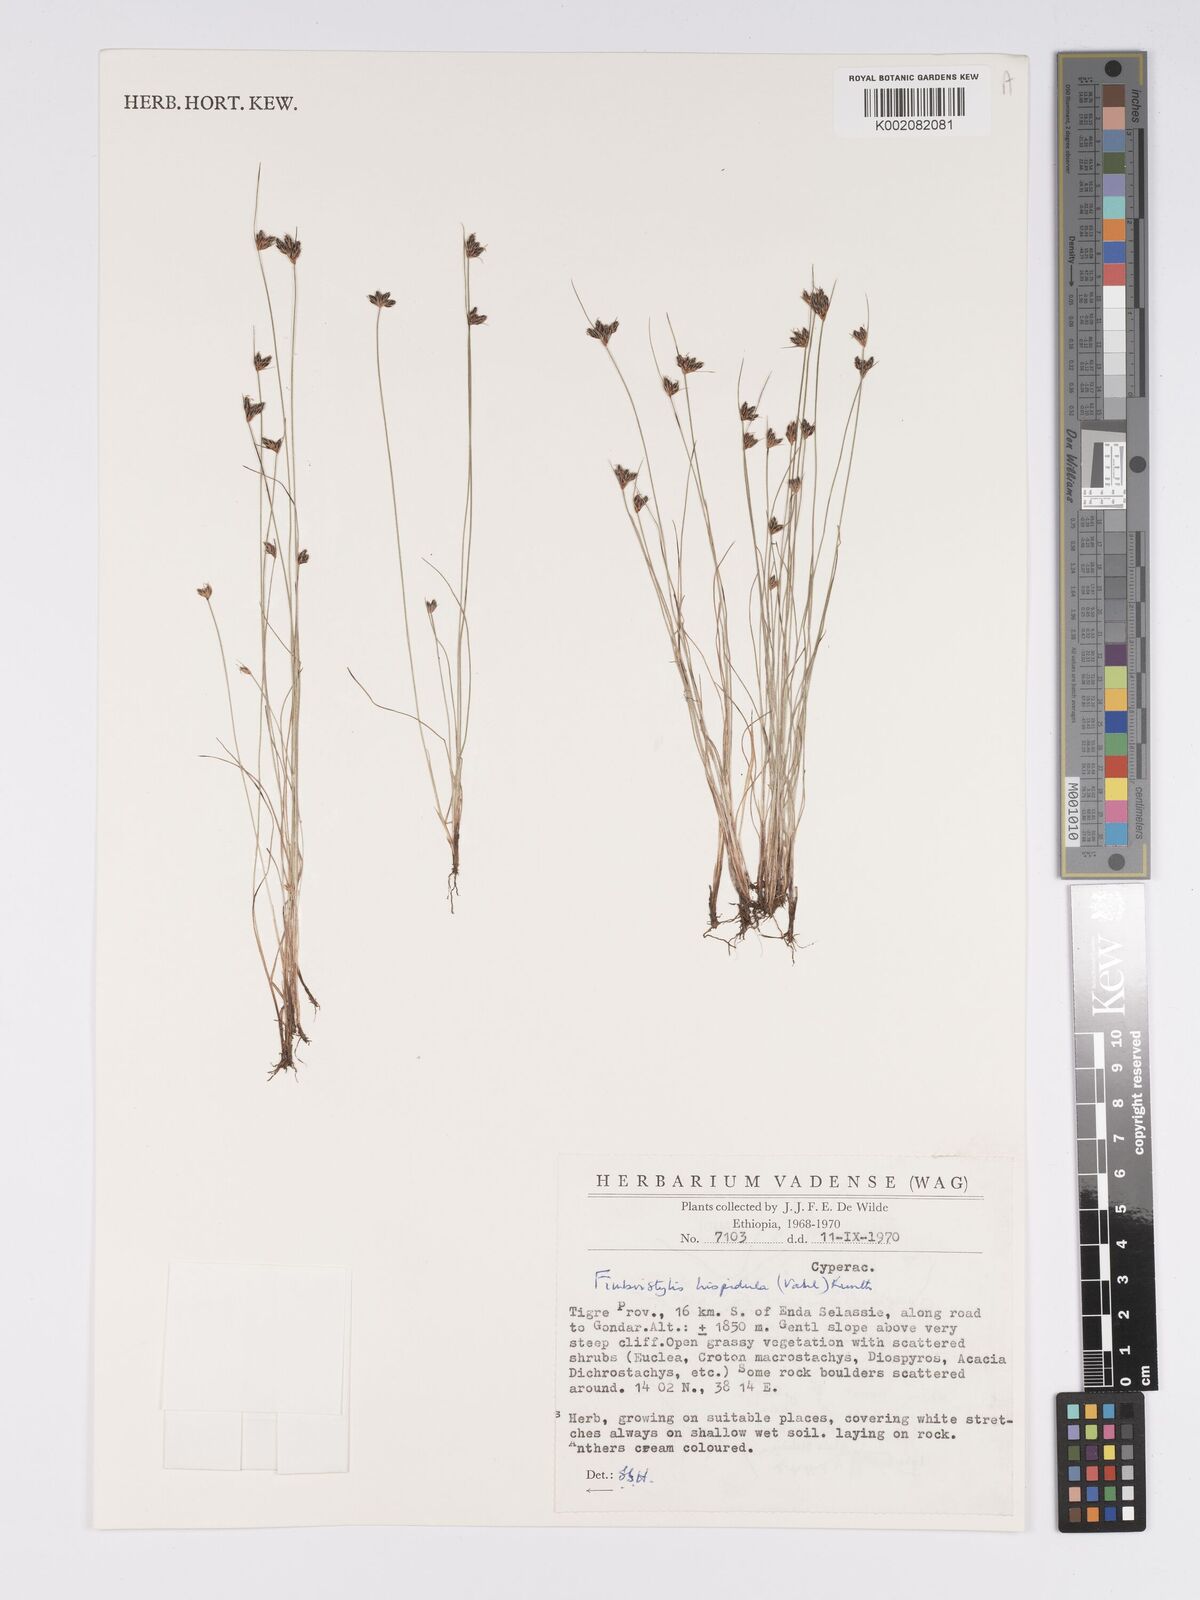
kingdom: Plantae
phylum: Tracheophyta
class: Liliopsida
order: Poales
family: Cyperaceae
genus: Bulbostylis
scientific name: Bulbostylis hispidula
